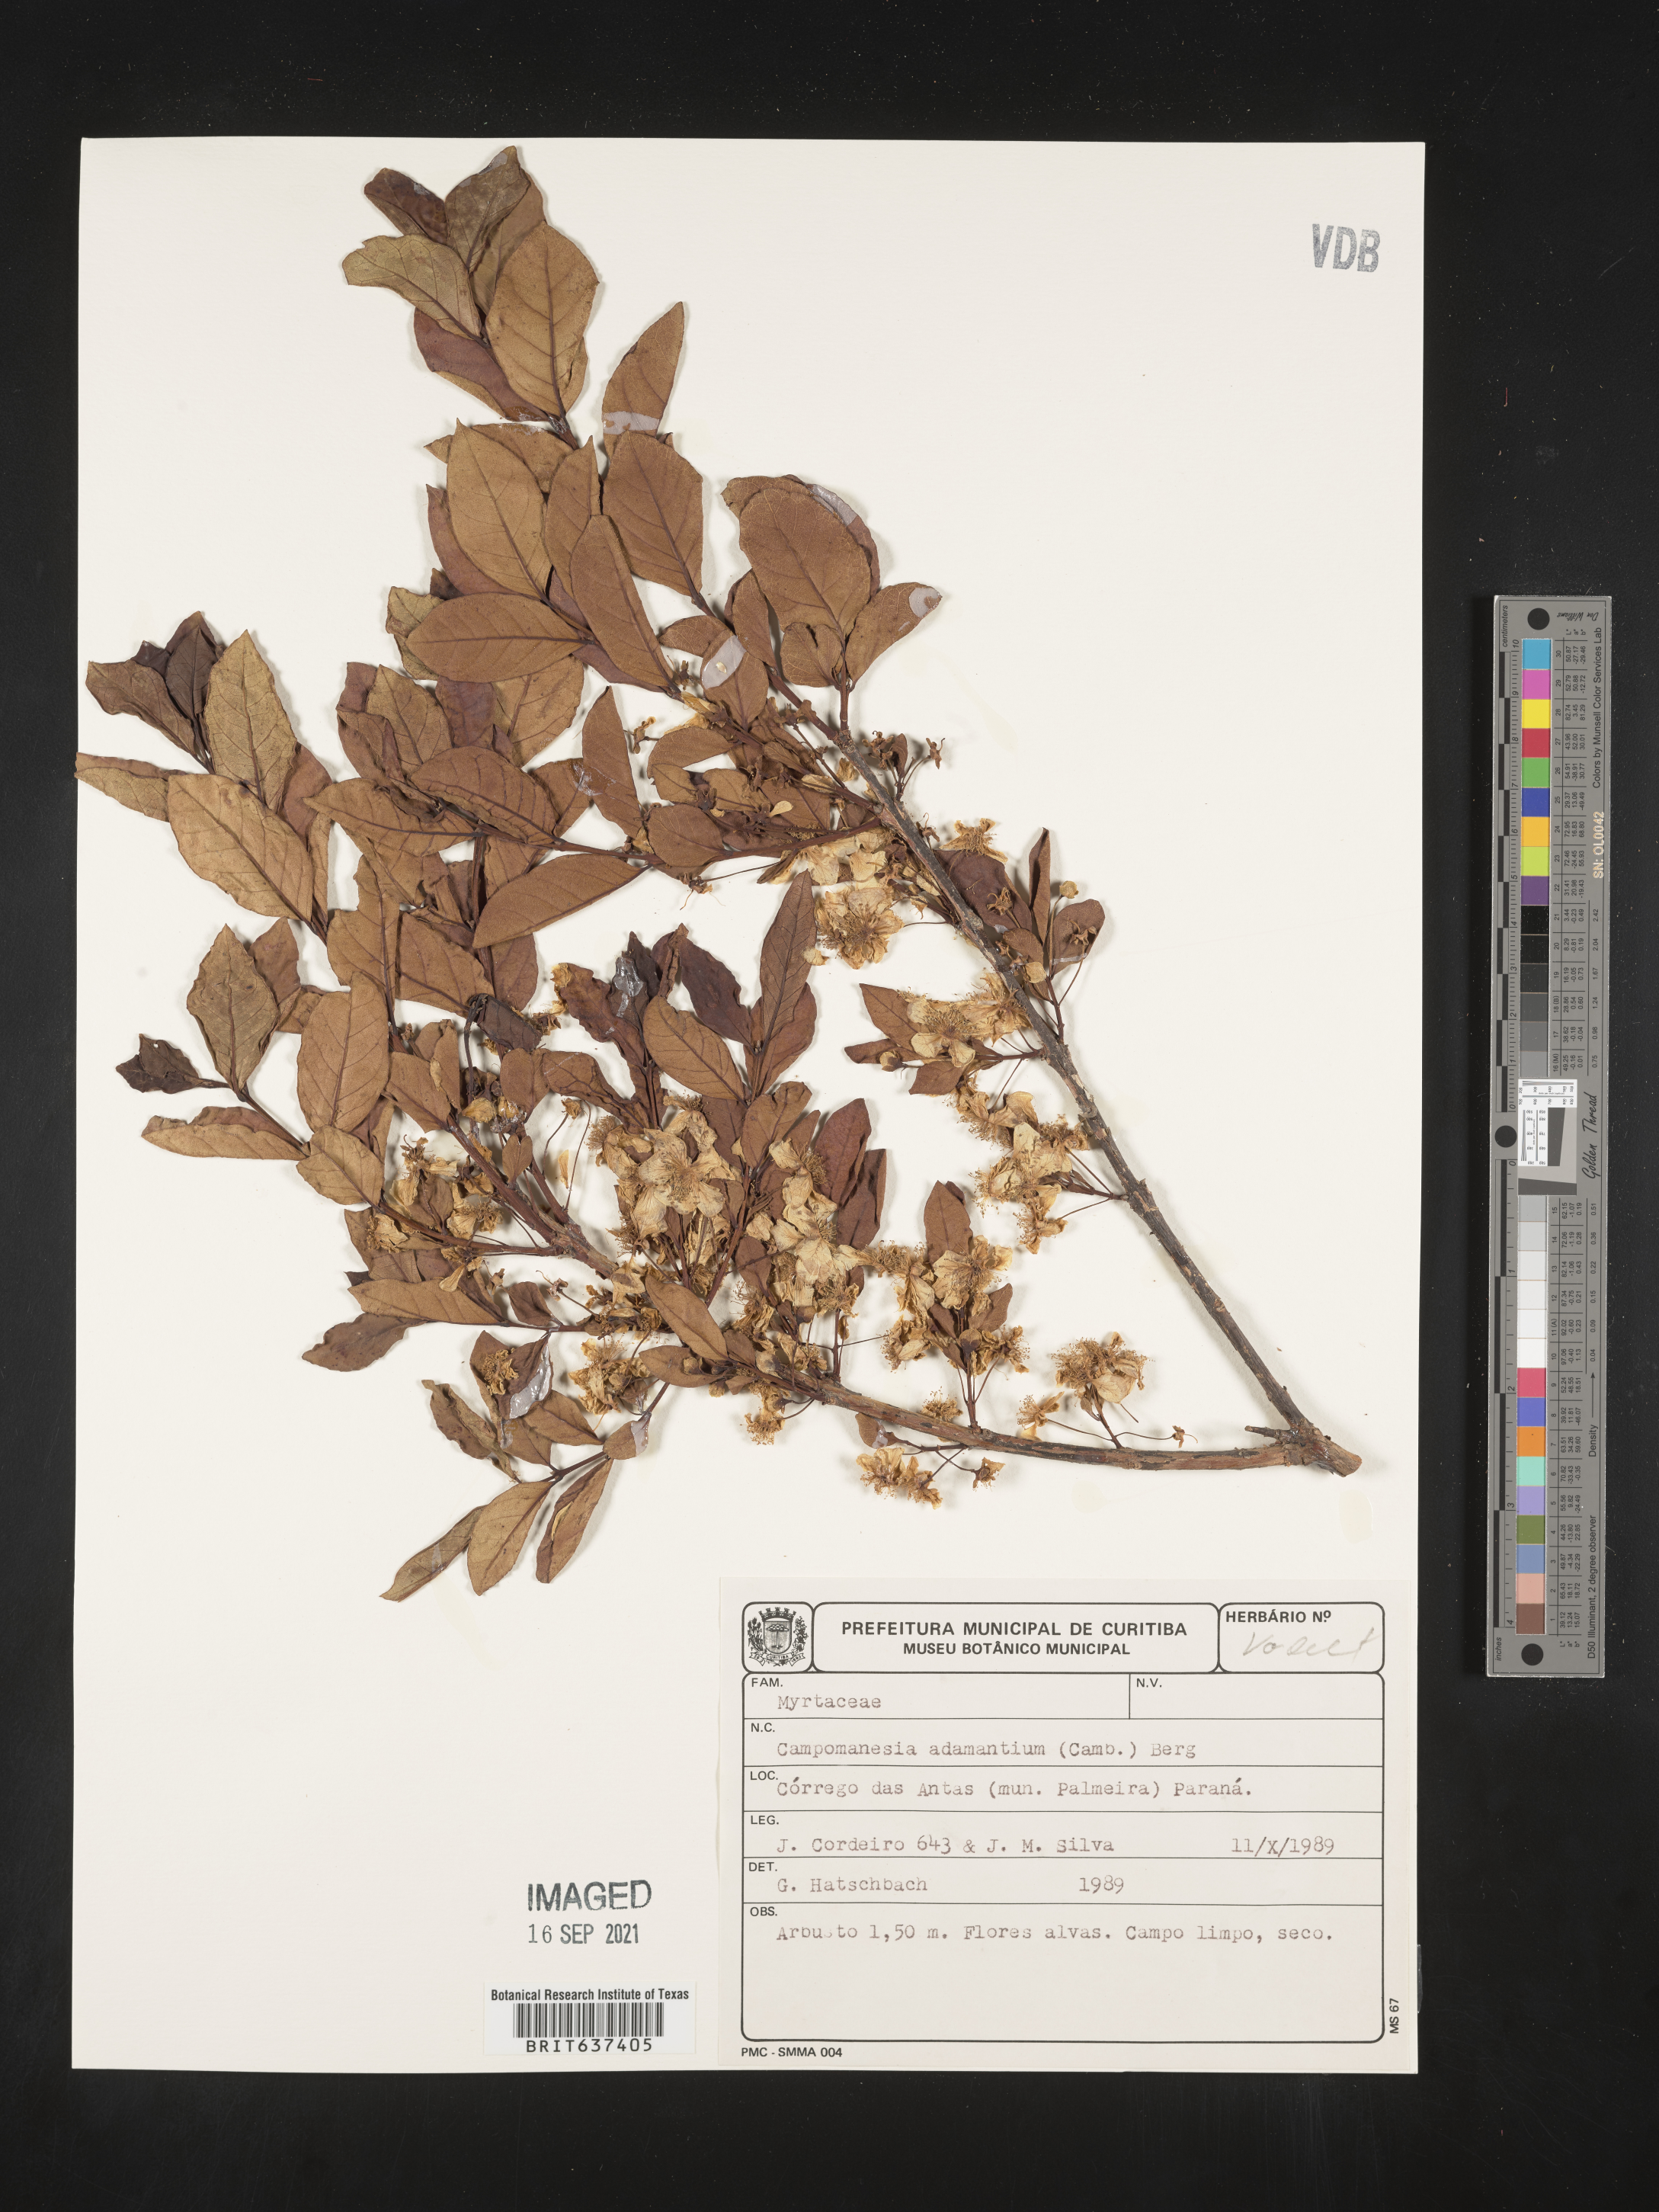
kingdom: Plantae
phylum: Tracheophyta
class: Magnoliopsida
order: Myrtales
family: Myrtaceae
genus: Campomanesia
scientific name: Campomanesia
